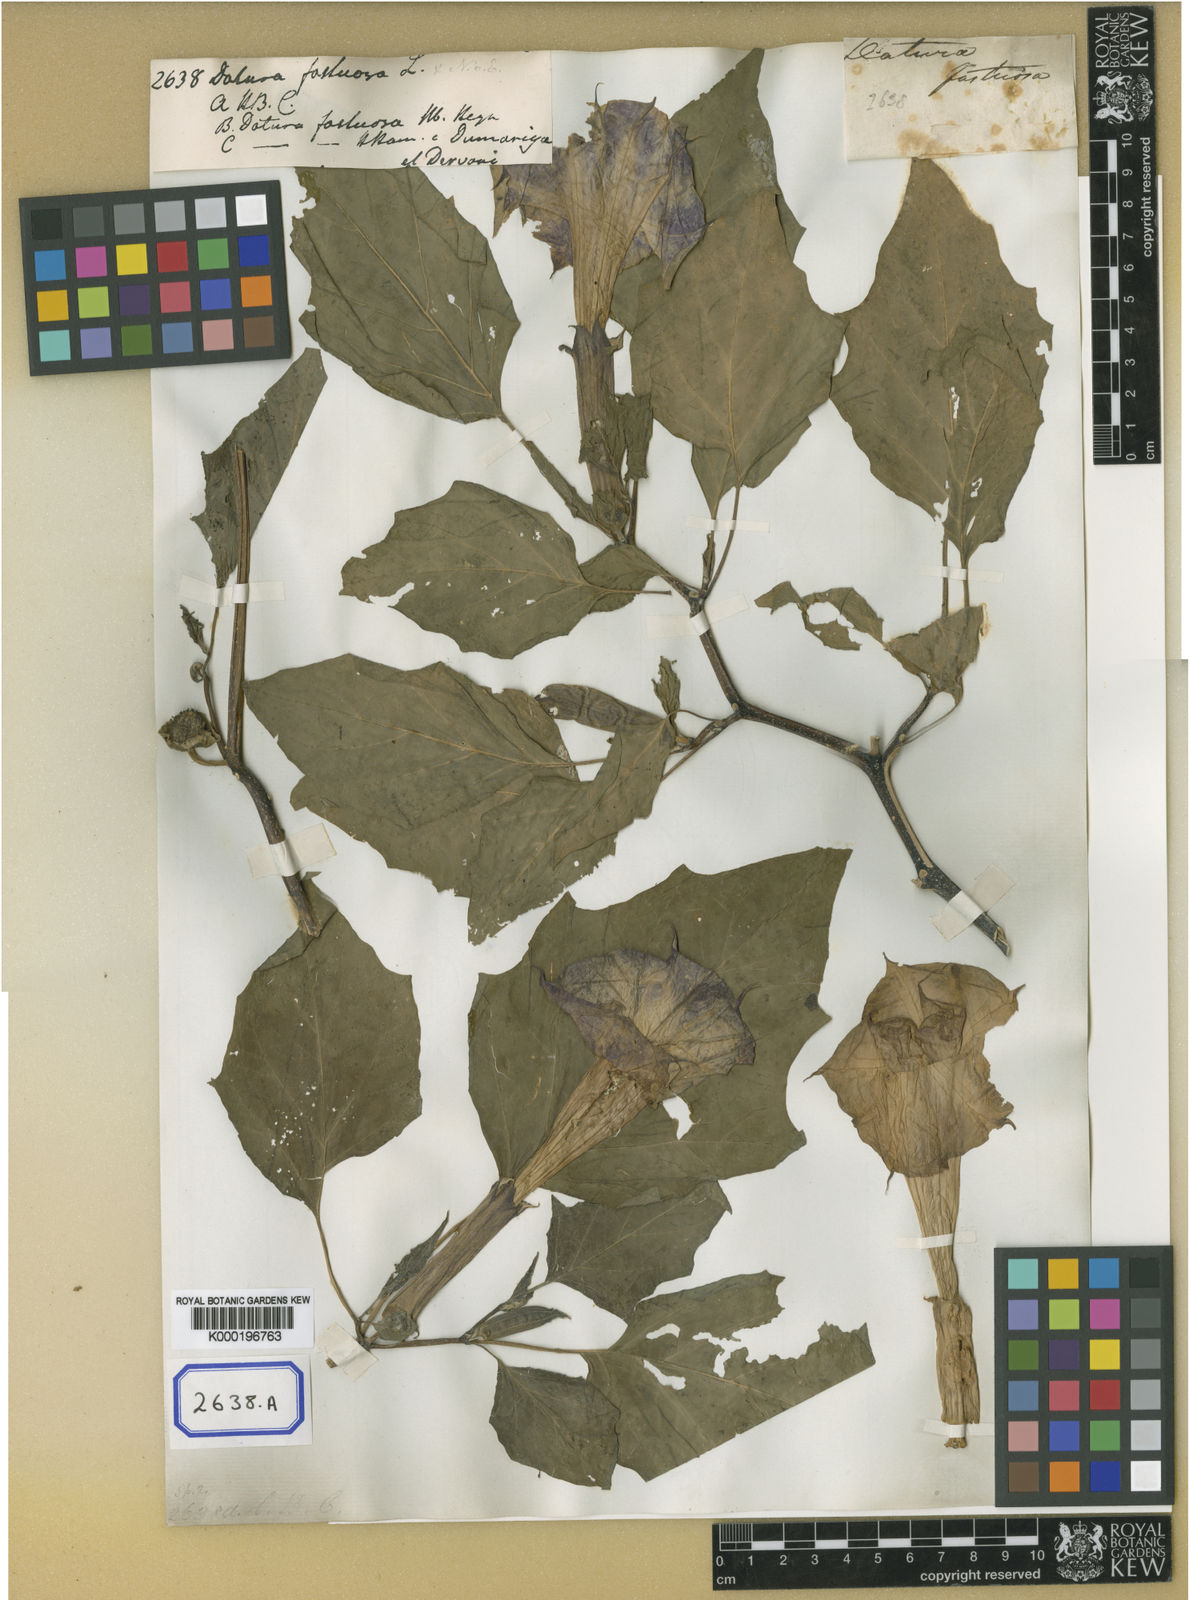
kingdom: Plantae
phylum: Tracheophyta
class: Magnoliopsida
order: Solanales
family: Solanaceae
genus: Datura
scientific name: Datura metel
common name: Jimsonweed
